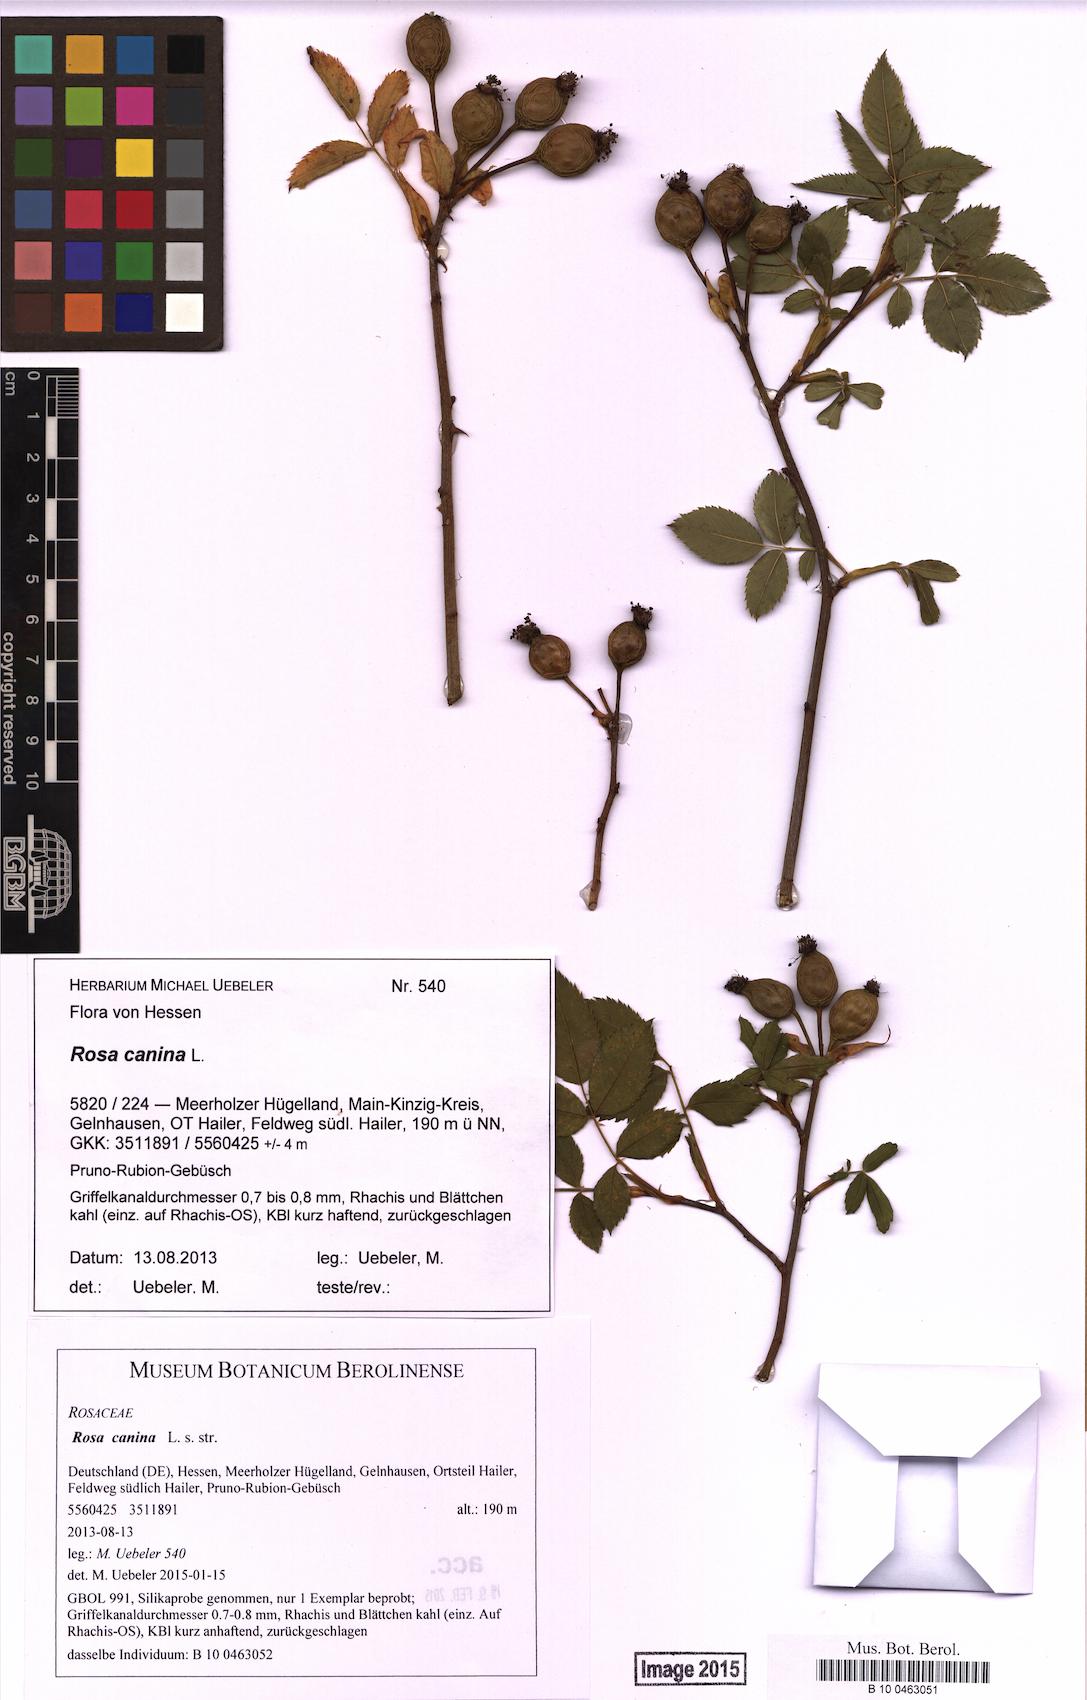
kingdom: Plantae
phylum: Tracheophyta
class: Magnoliopsida
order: Rosales
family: Rosaceae
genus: Rosa
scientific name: Rosa canina
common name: Dog rose
